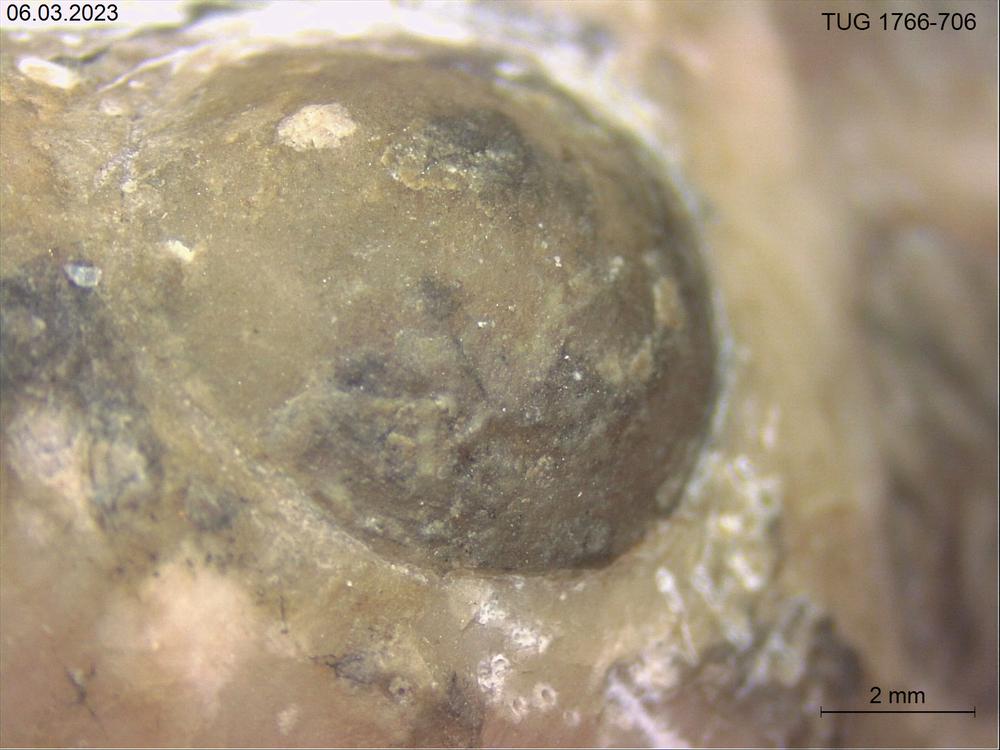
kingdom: Animalia
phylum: Brachiopoda
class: Craniata
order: Craniida
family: Craniidae
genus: Philhedra
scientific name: Philhedra
